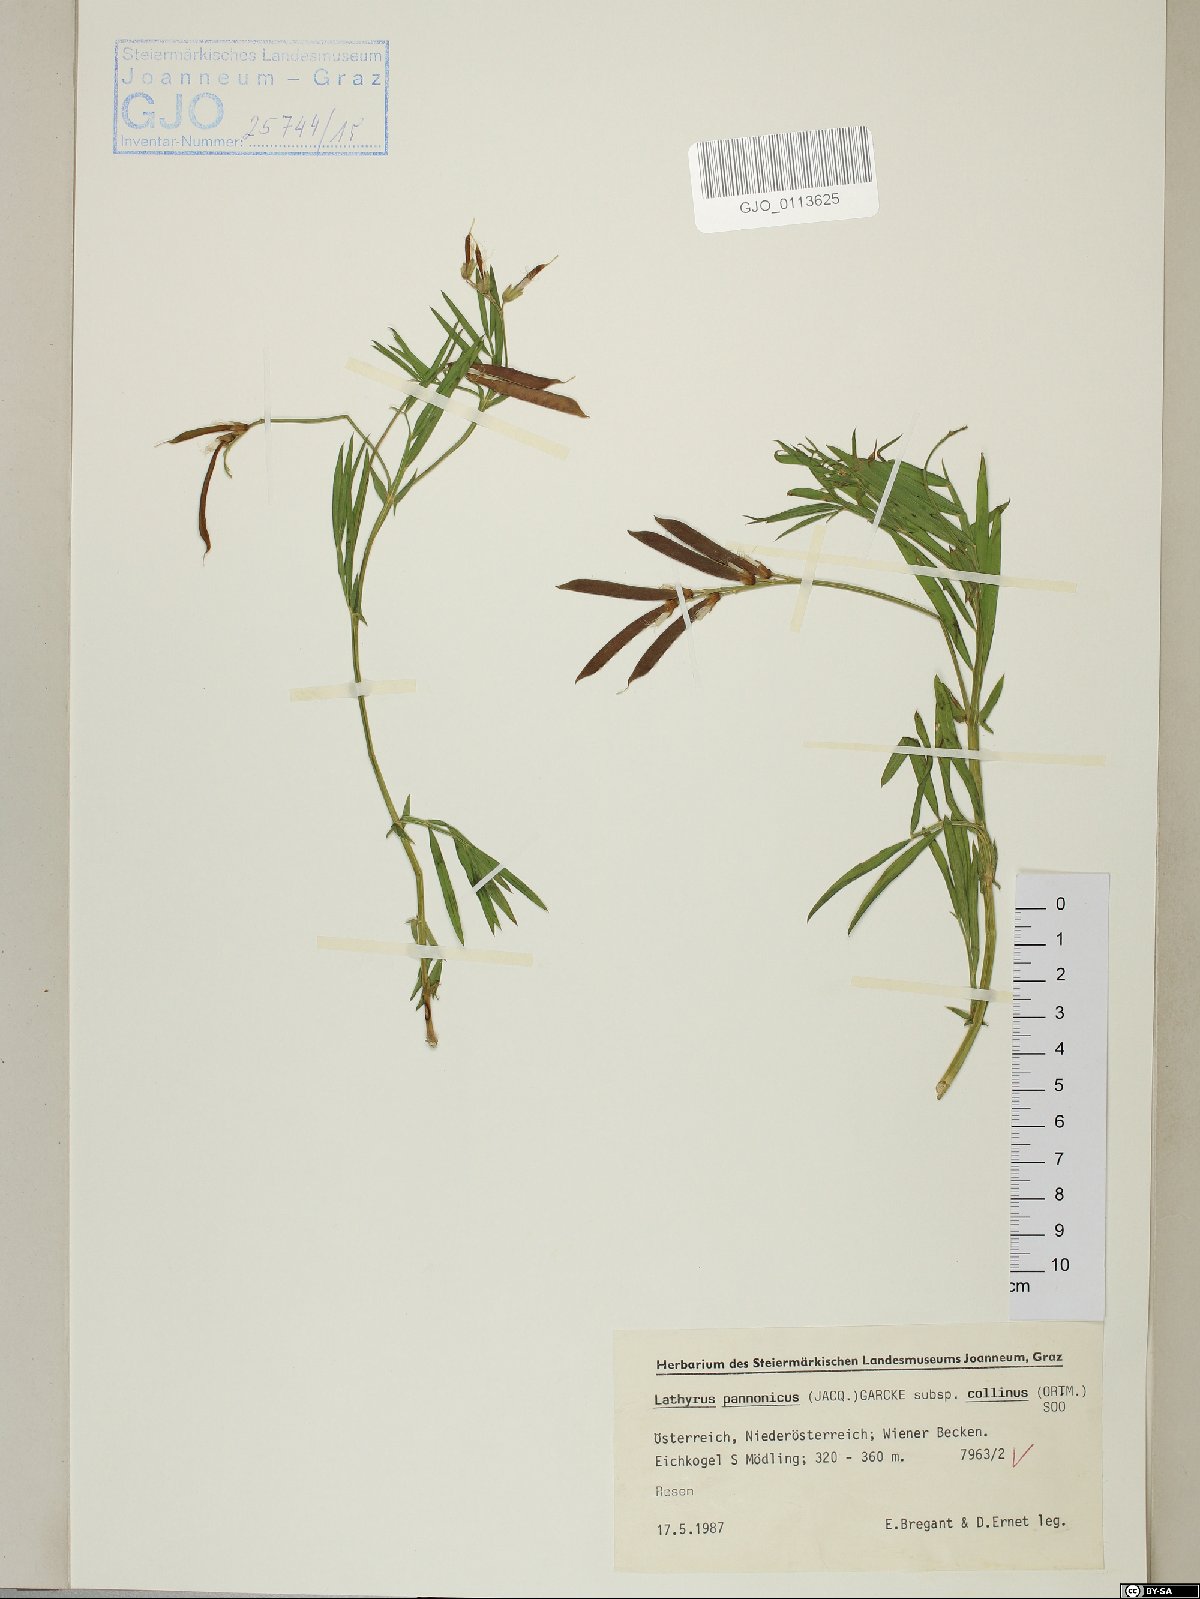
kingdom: Plantae
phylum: Tracheophyta
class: Magnoliopsida
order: Fabales
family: Fabaceae
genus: Lathyrus
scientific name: Lathyrus pannonicus
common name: Pea
